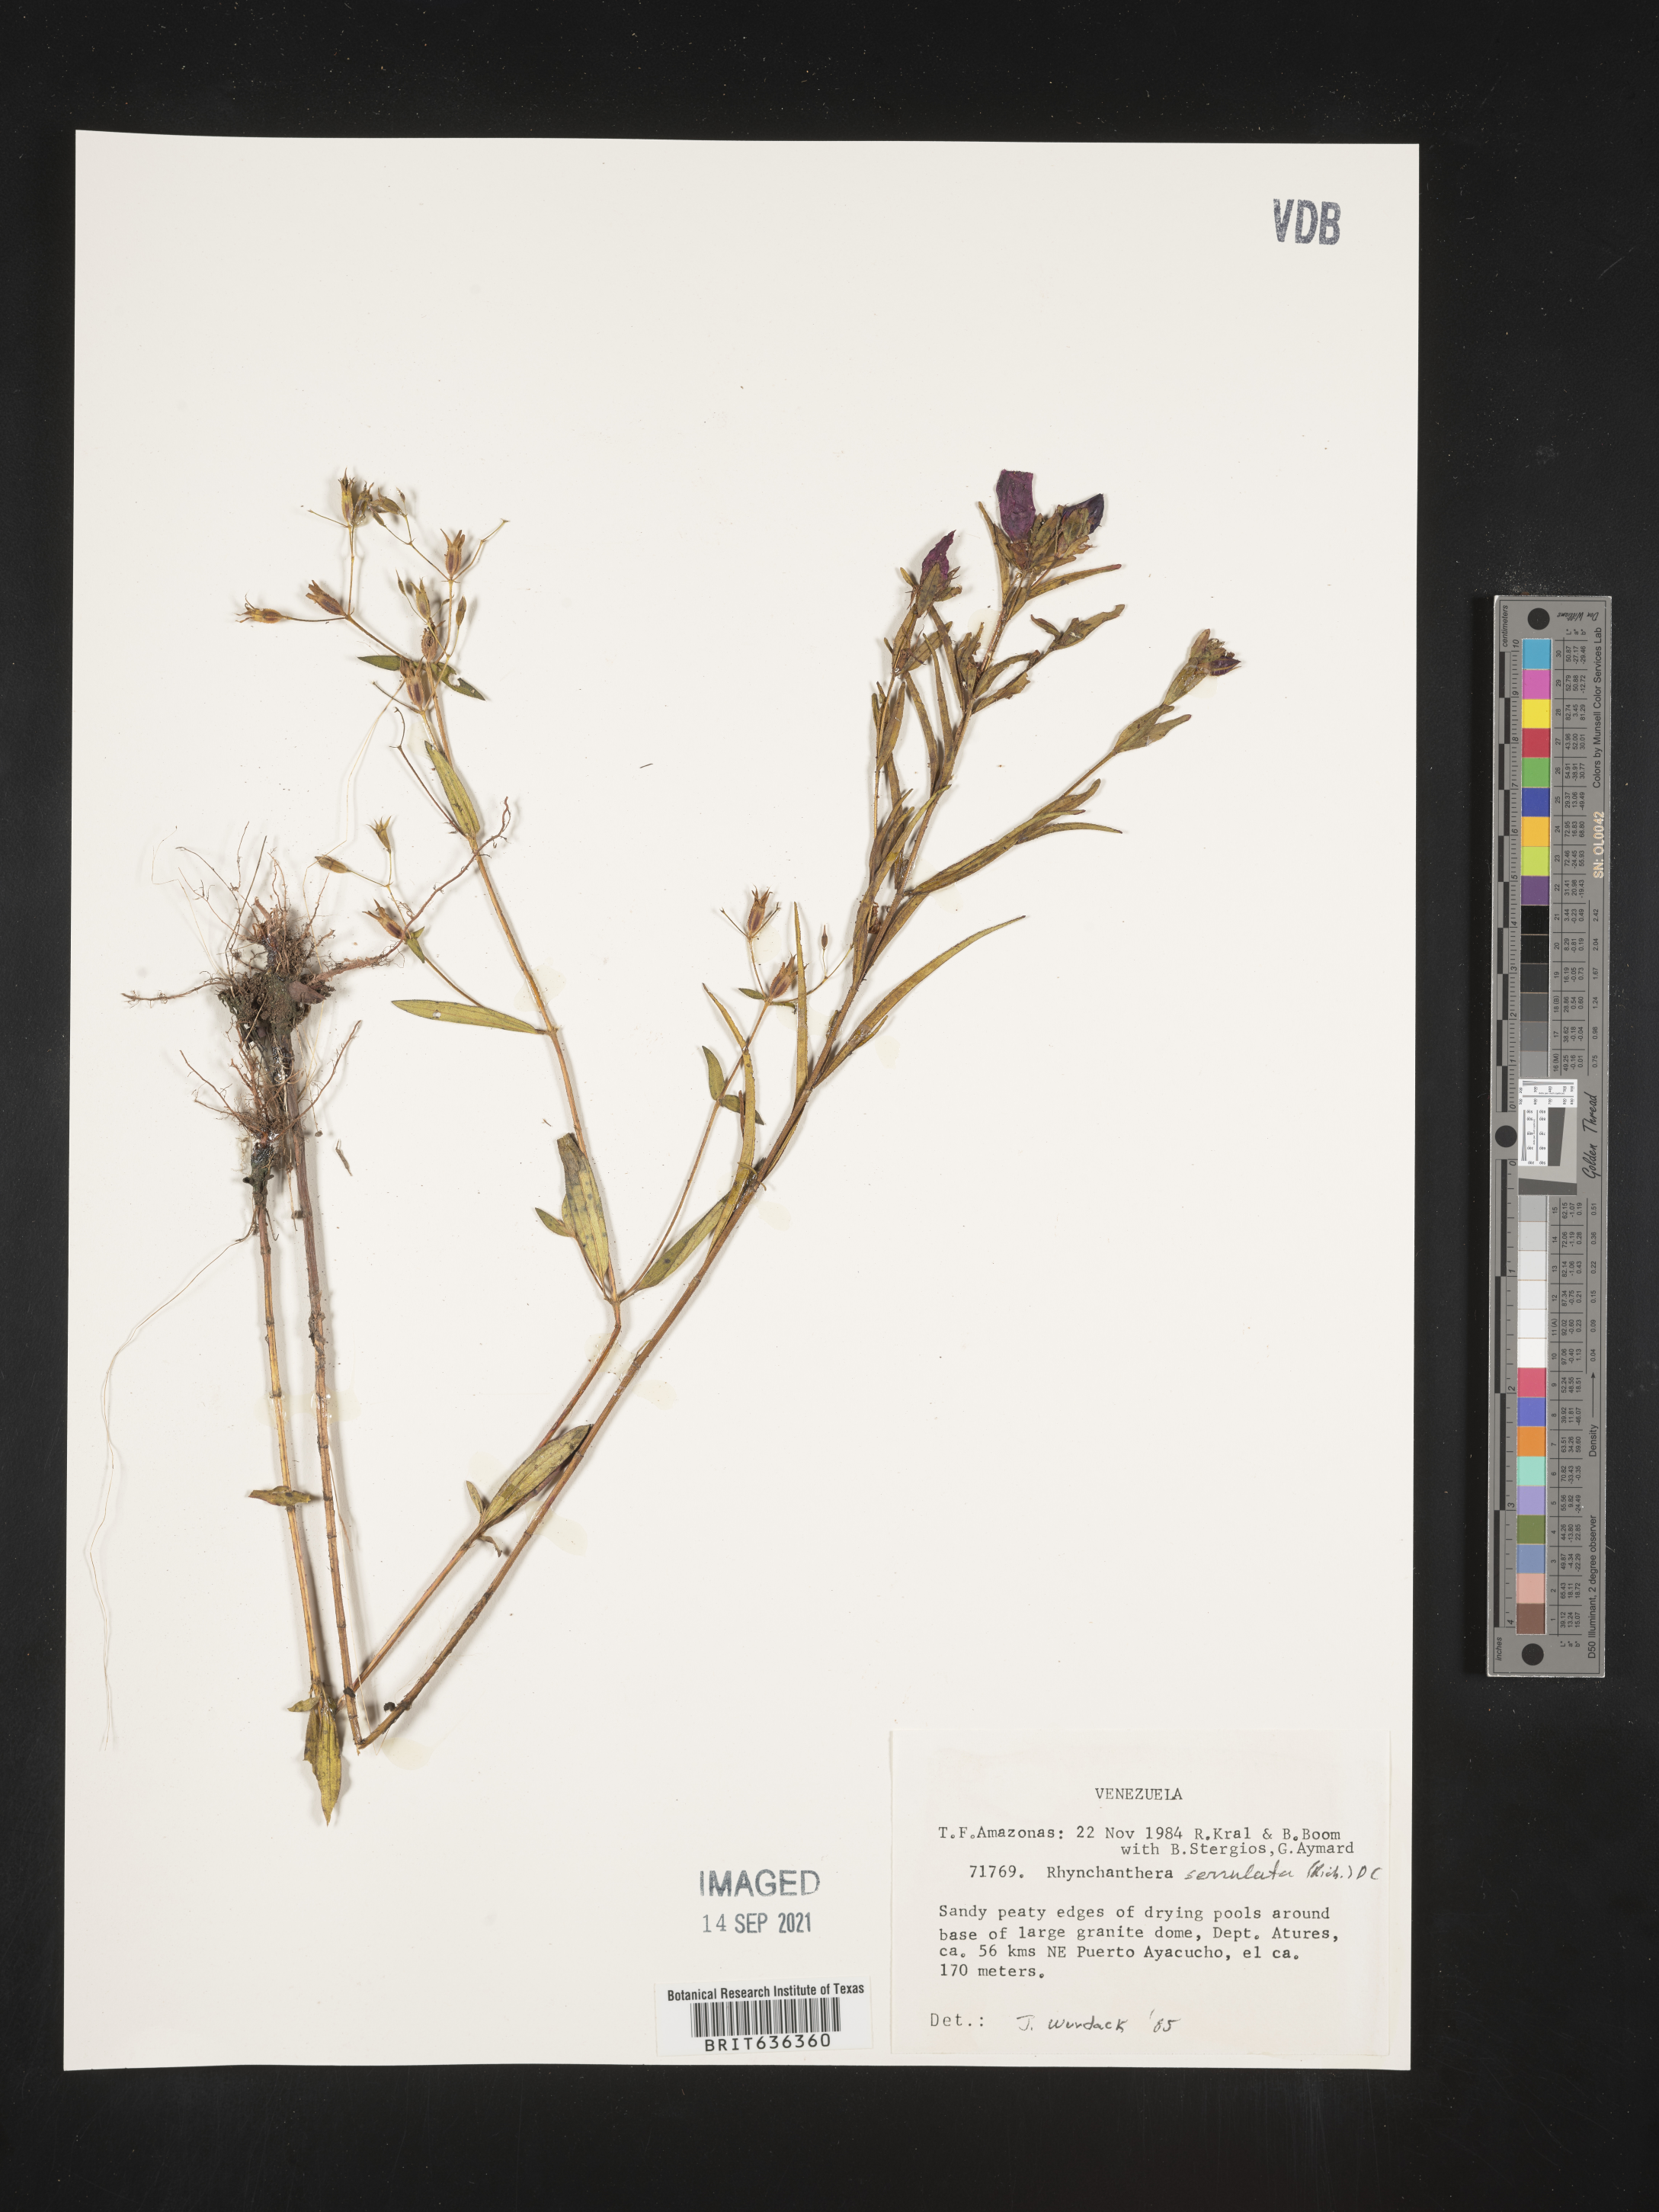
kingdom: Plantae
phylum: Tracheophyta
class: Magnoliopsida
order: Myrtales
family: Melastomataceae
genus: Rhynchanthera
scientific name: Rhynchanthera
